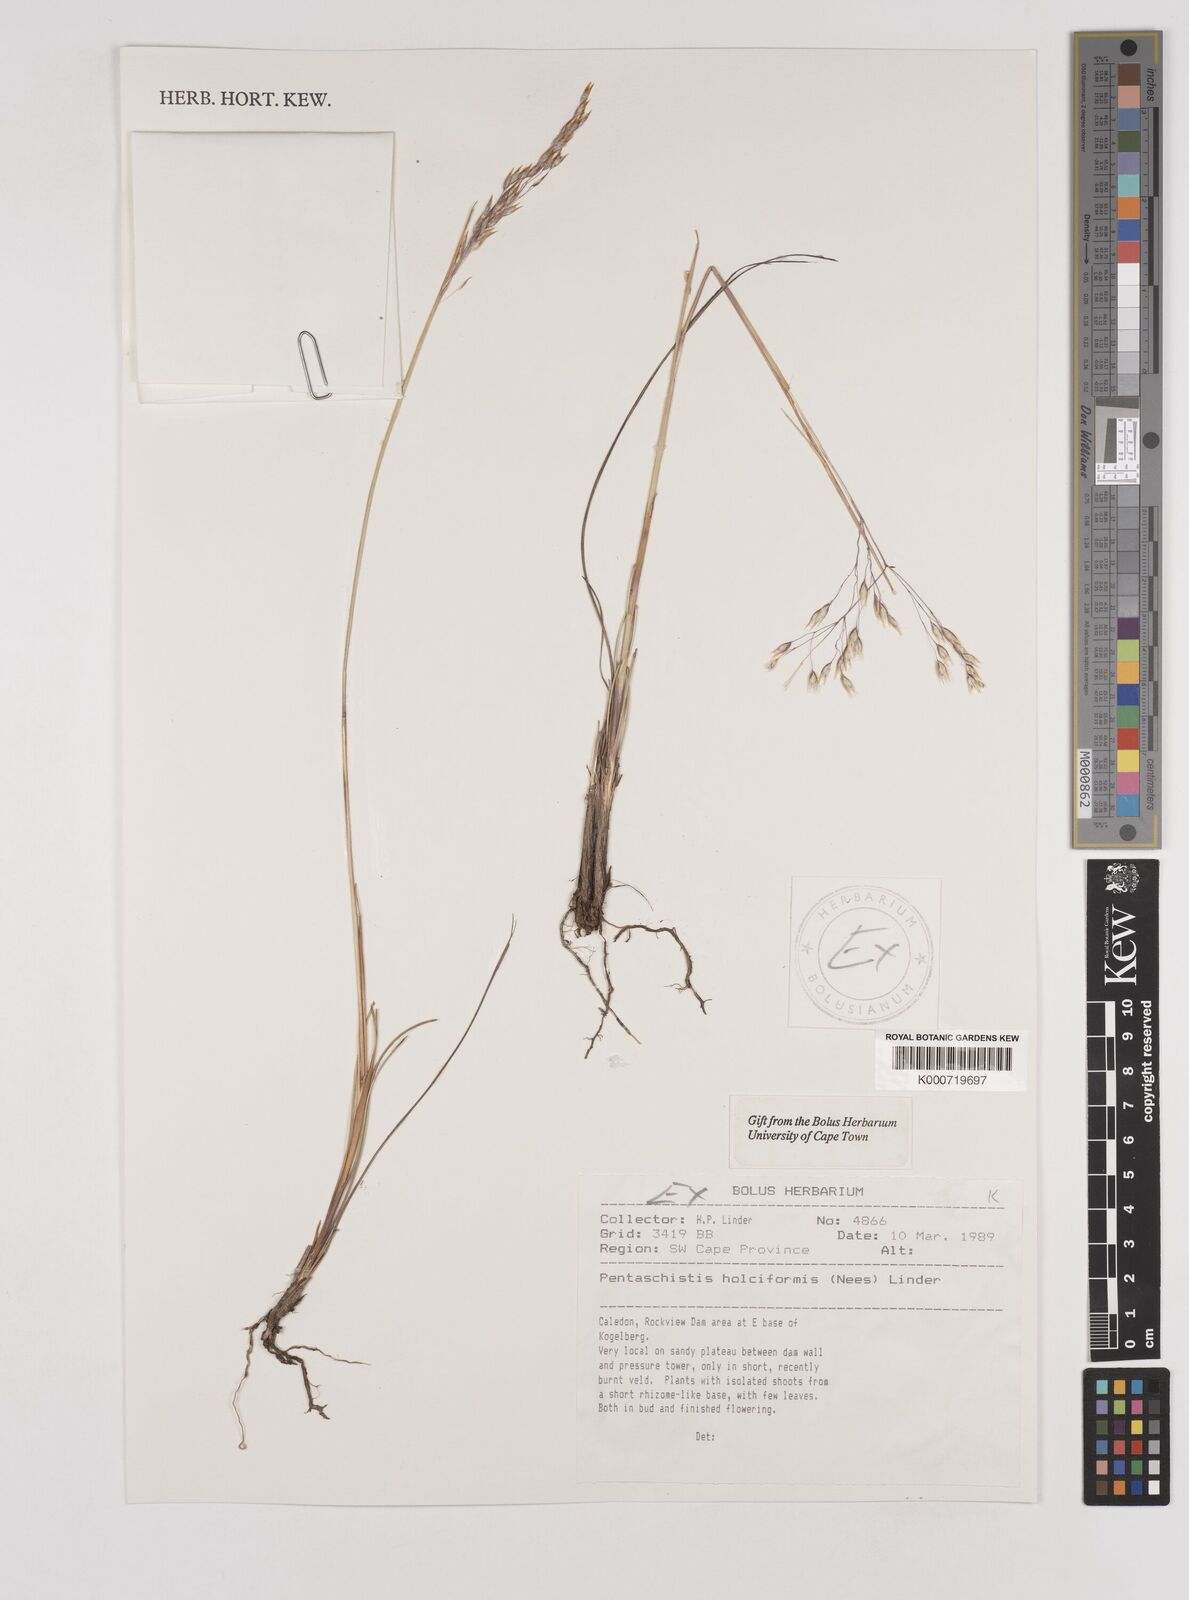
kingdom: Plantae
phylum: Tracheophyta
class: Liliopsida
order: Poales
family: Poaceae
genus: Pentameris
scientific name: Pentameris holciformis
